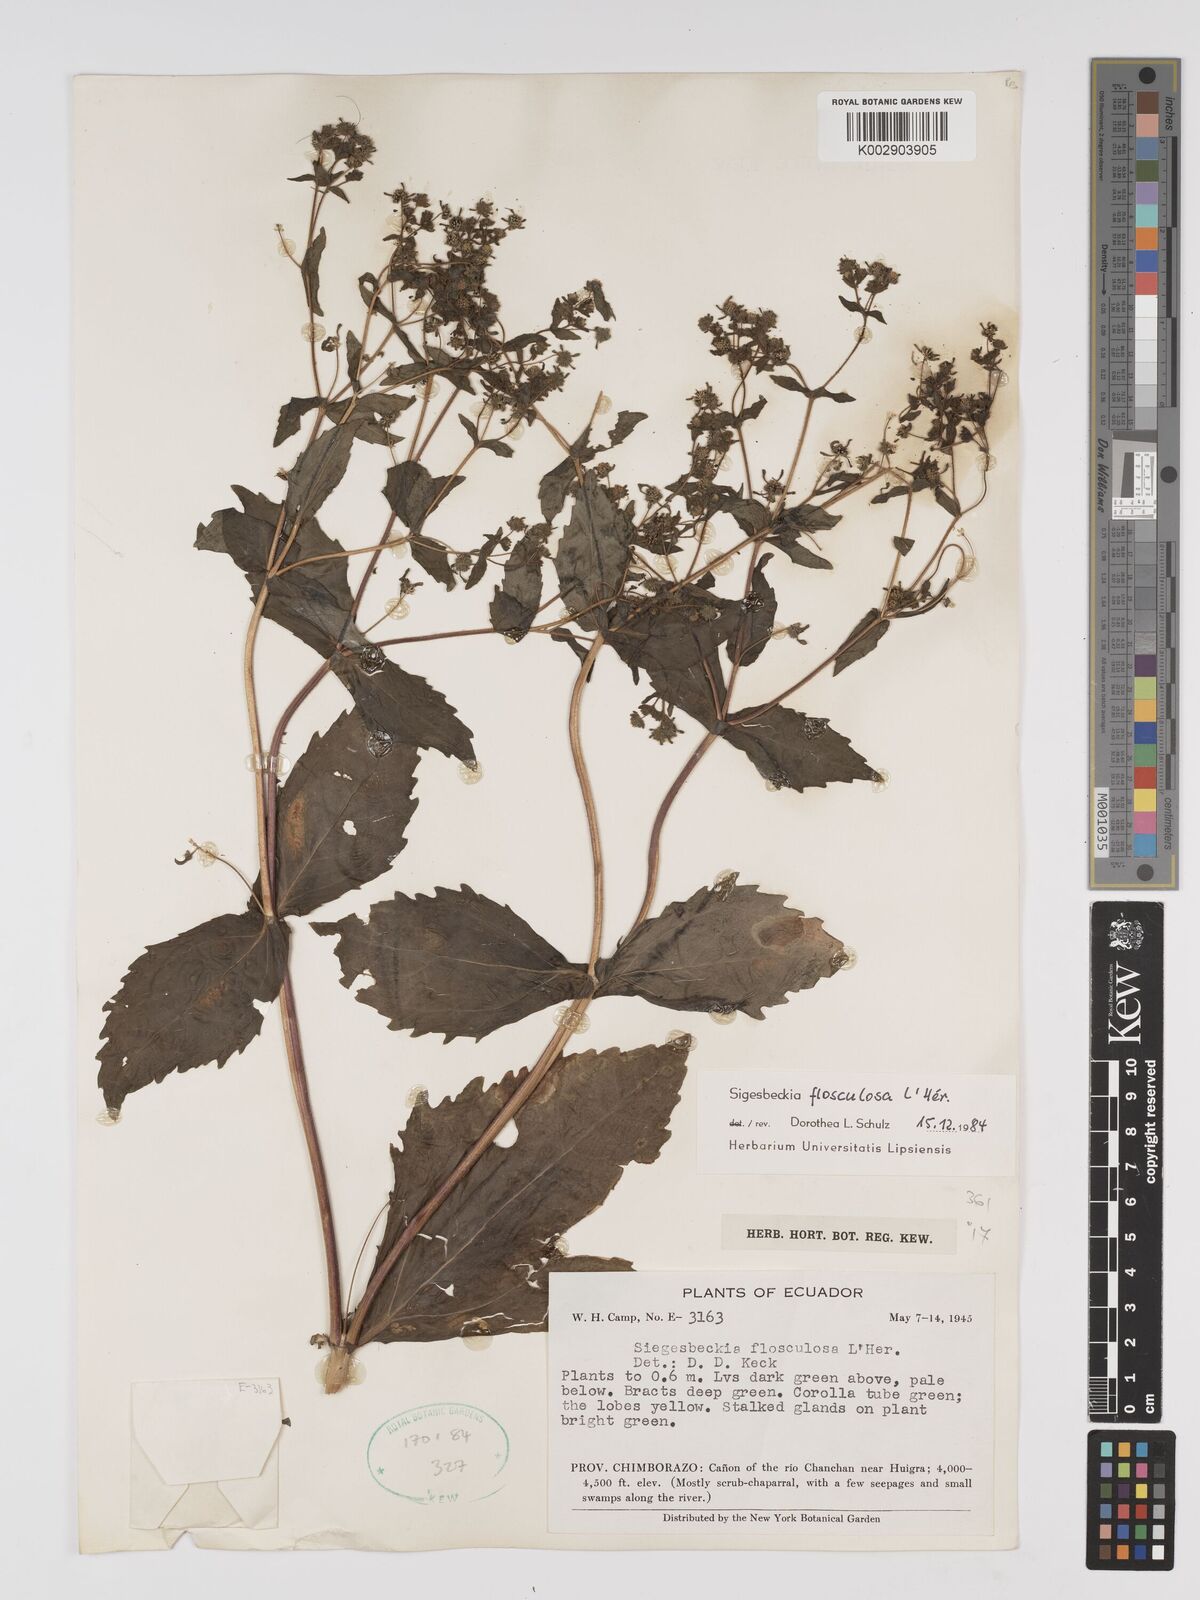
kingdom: Plantae
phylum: Tracheophyta
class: Magnoliopsida
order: Asterales
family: Asteraceae
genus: Sigesbeckia
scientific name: Sigesbeckia flosculosa
